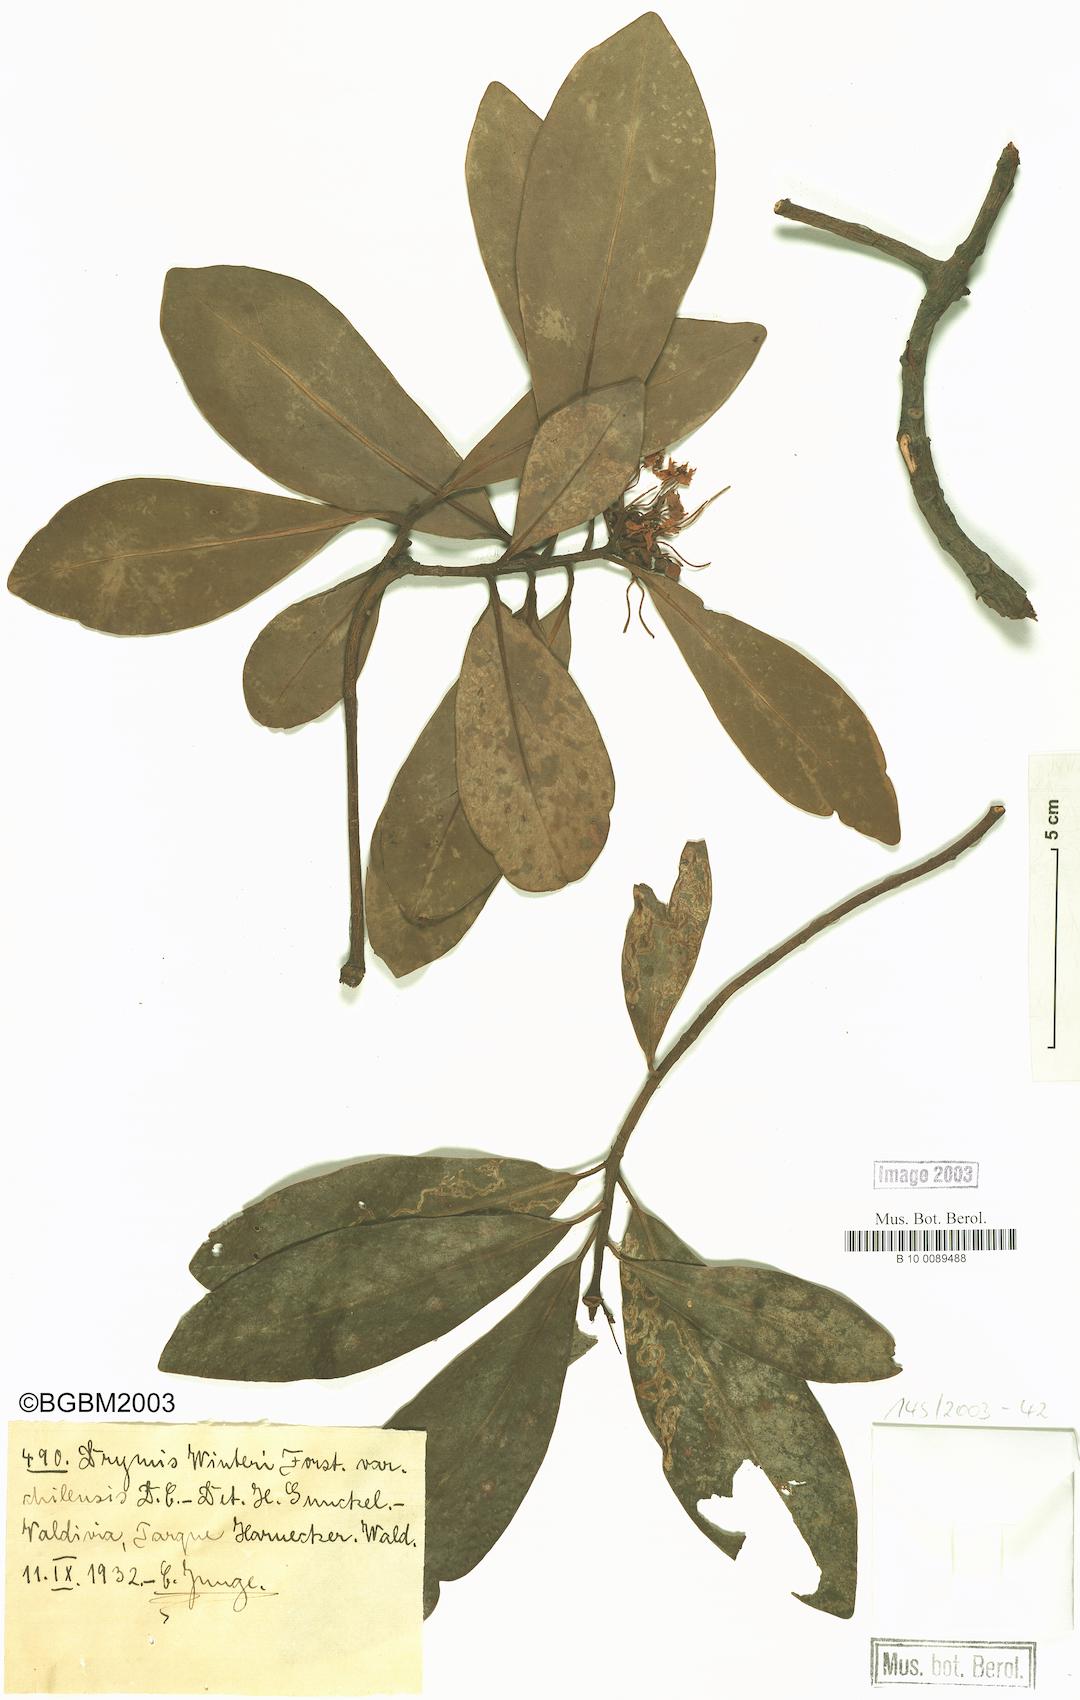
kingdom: Plantae
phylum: Tracheophyta
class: Magnoliopsida
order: Canellales
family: Winteraceae
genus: Drimys
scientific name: Drimys winteri
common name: Winter's-bark
